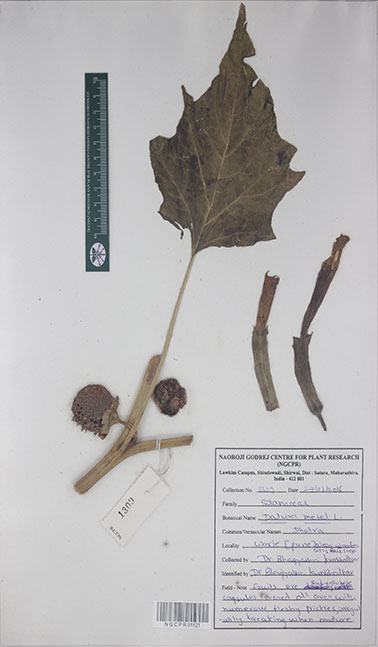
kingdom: Plantae
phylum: Tracheophyta
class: Magnoliopsida
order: Solanales
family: Solanaceae
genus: Datura
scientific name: Datura metel
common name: Jimsonweed
